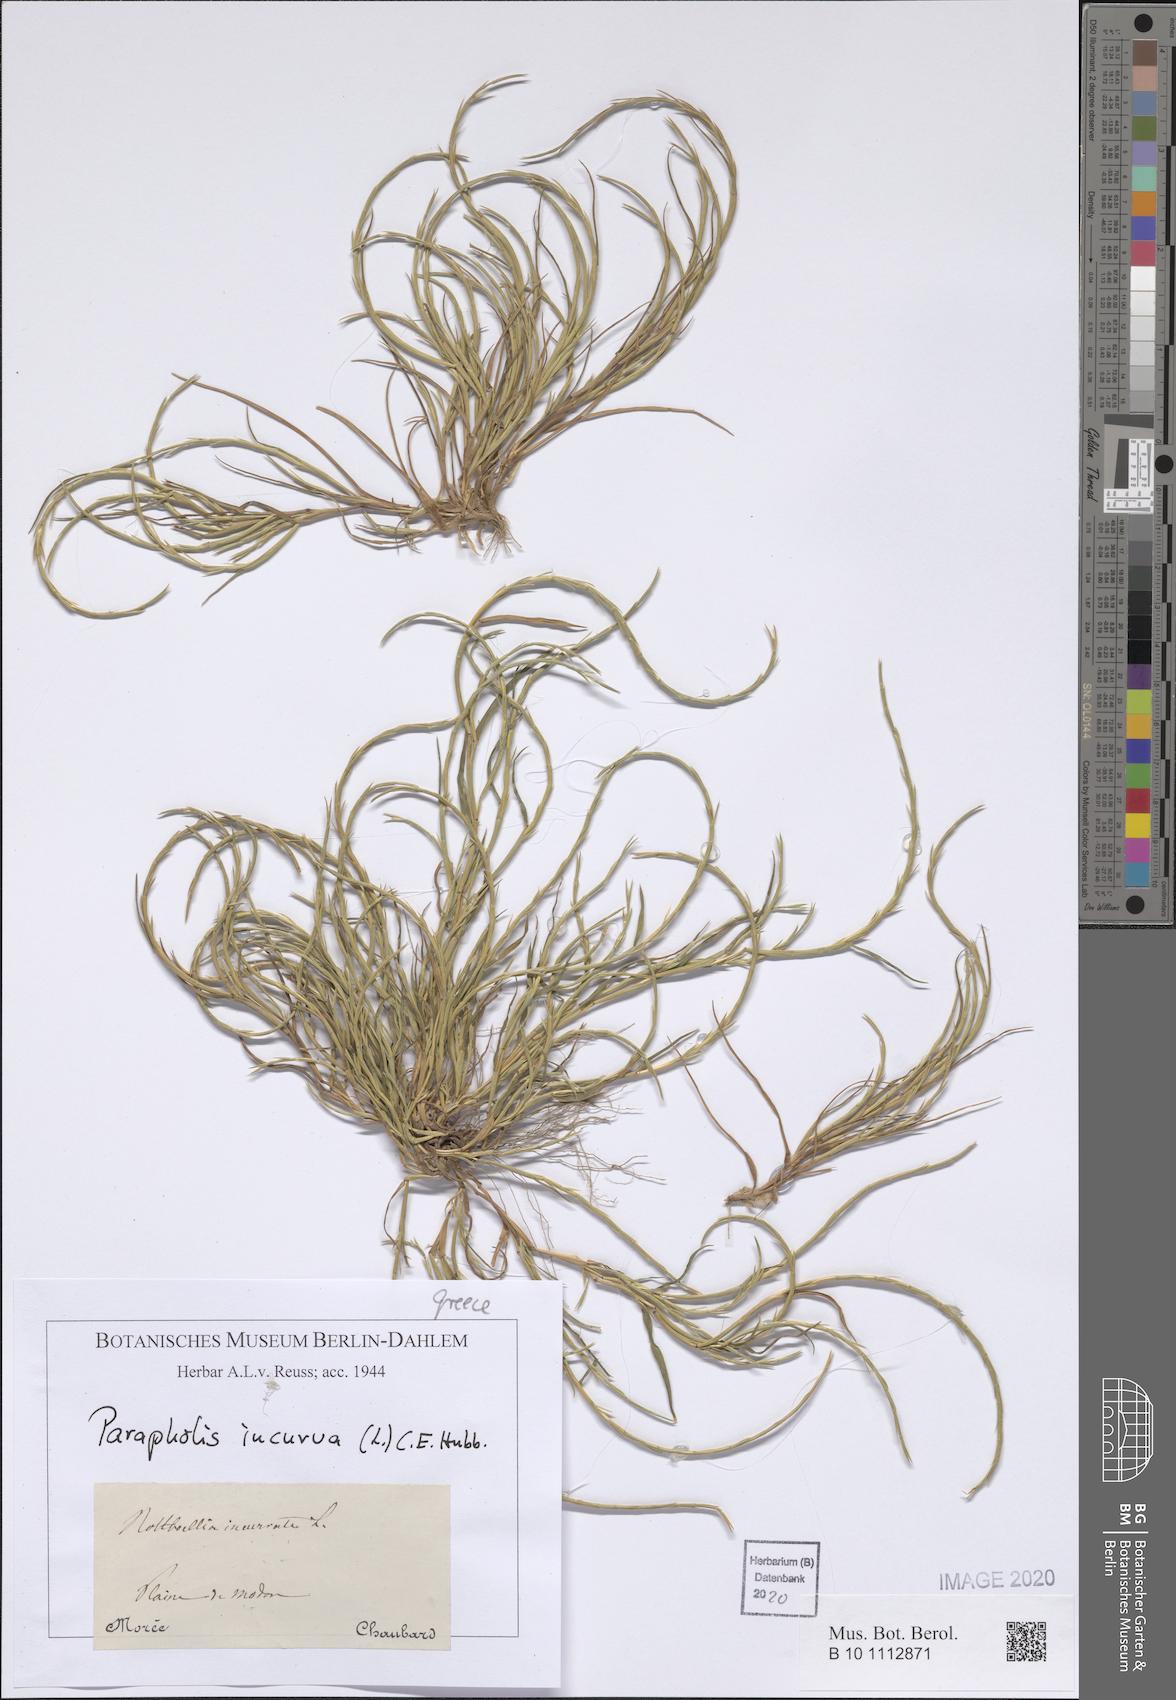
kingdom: Plantae
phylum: Tracheophyta
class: Liliopsida
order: Poales
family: Poaceae
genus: Parapholis
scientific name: Parapholis incurva
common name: Curved sicklegrass
